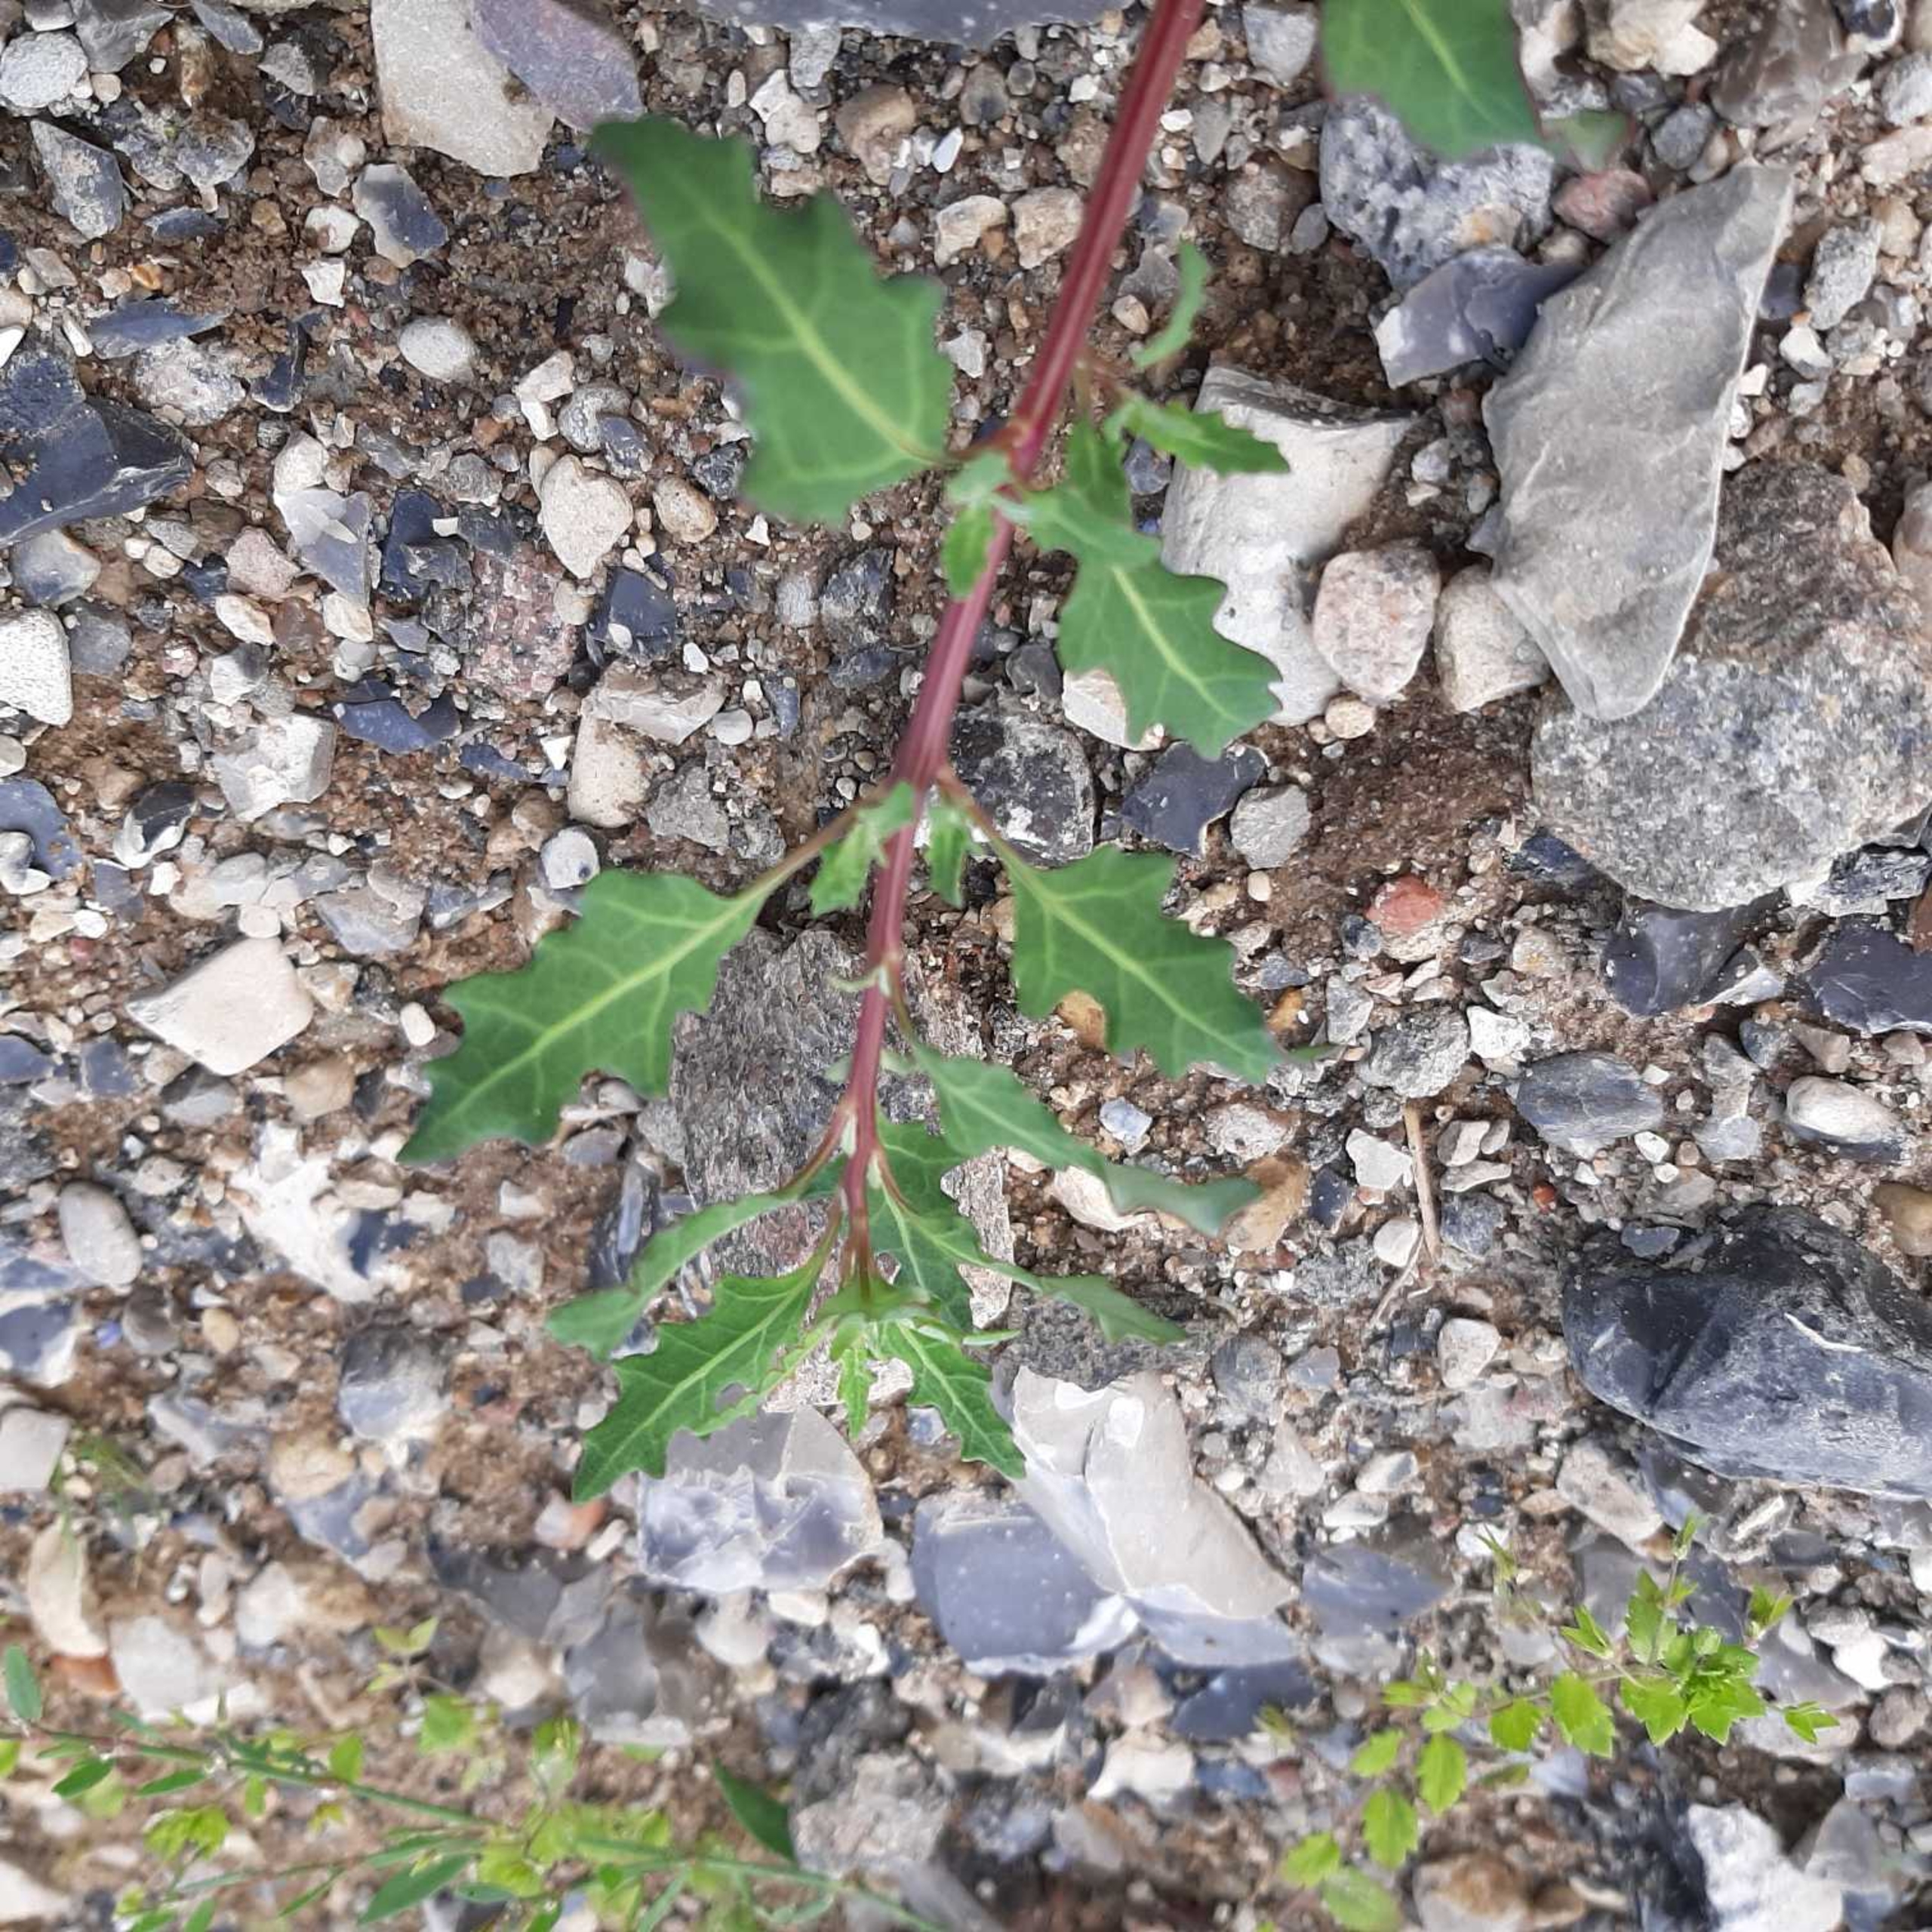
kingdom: Plantae
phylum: Tracheophyta
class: Magnoliopsida
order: Caryophyllales
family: Amaranthaceae
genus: Oxybasis
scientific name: Oxybasis glauca
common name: Blågrøn gåsefod
